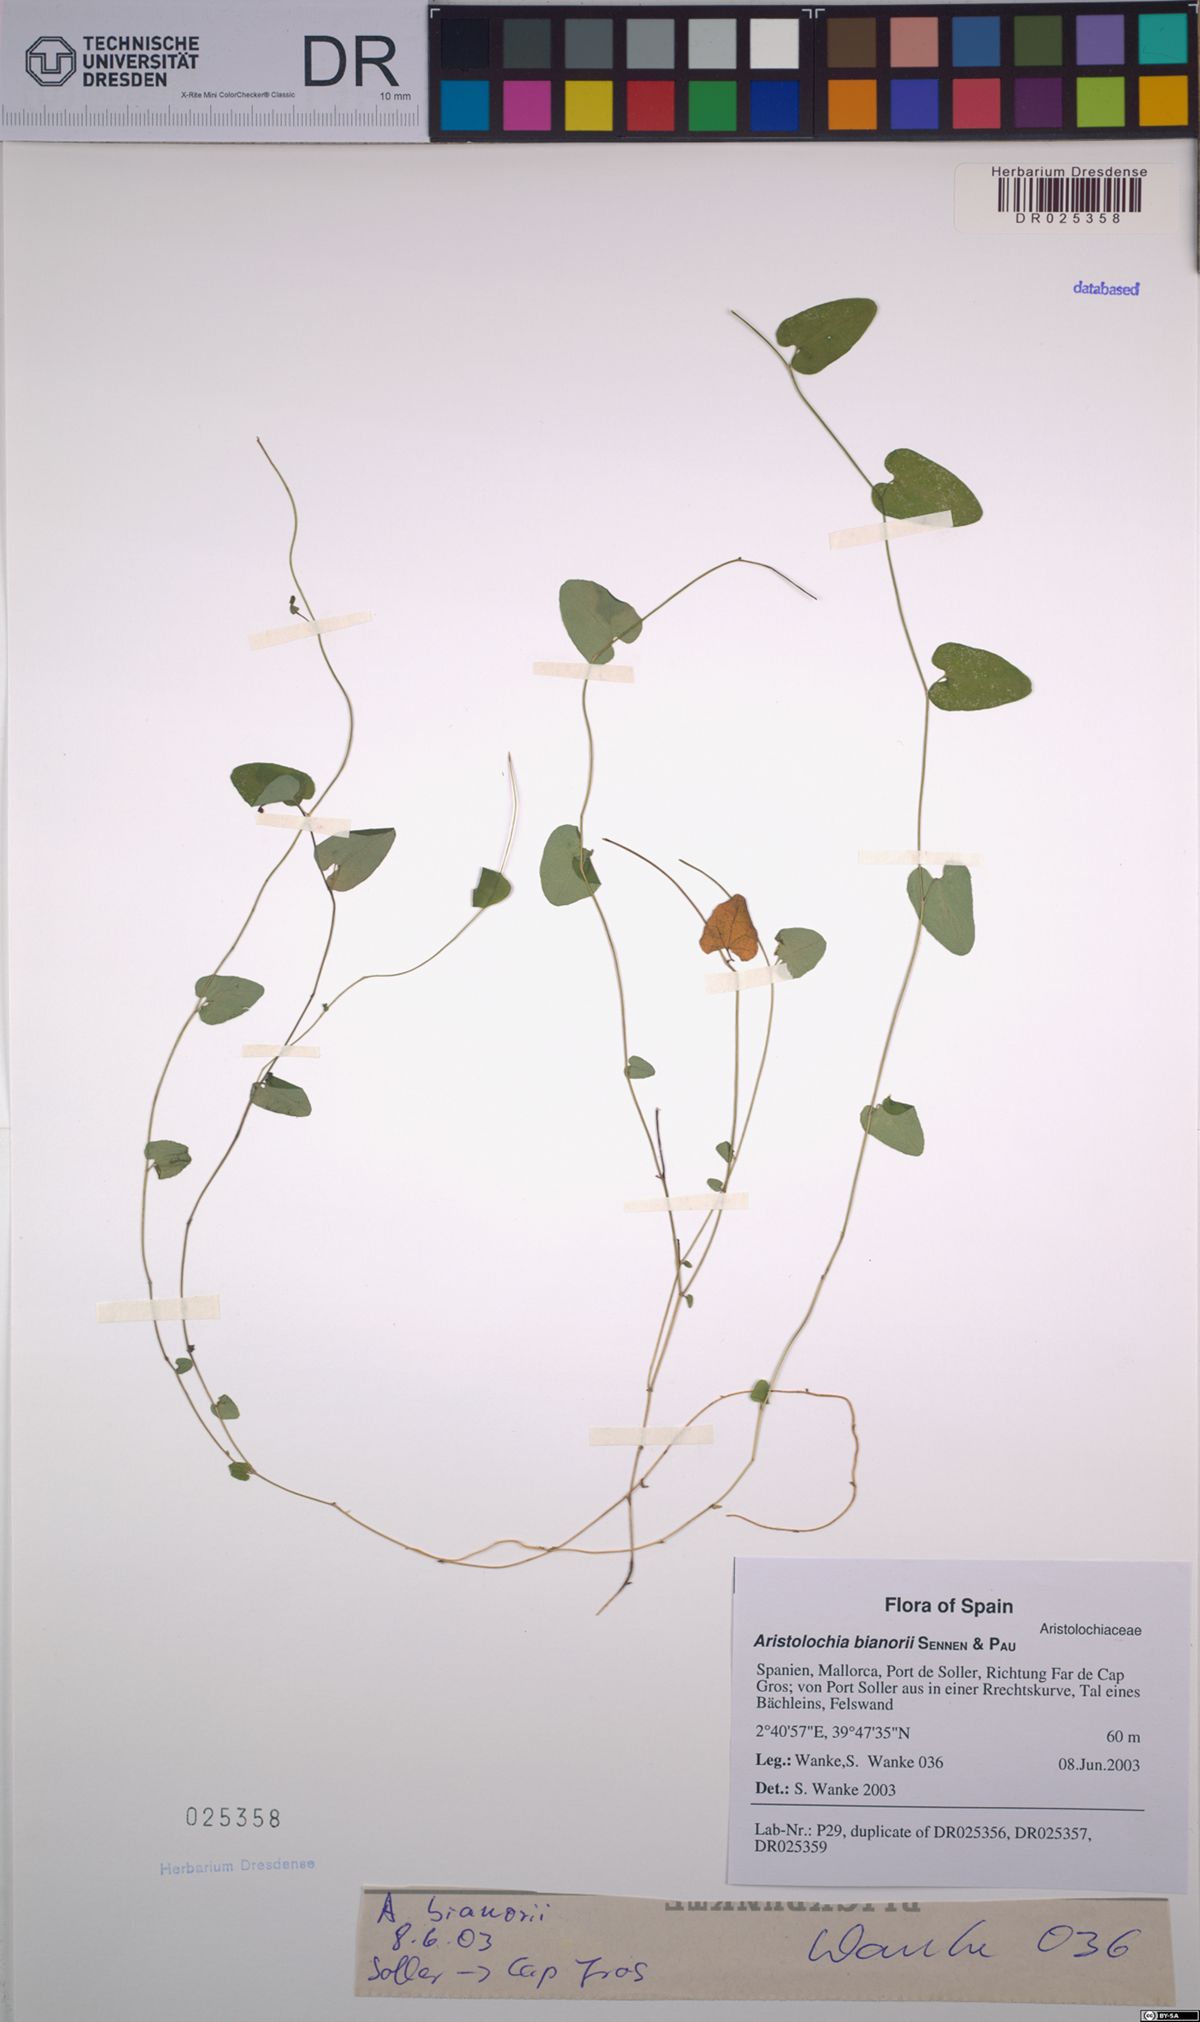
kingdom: Plantae
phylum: Tracheophyta
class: Magnoliopsida
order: Piperales
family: Aristolochiaceae
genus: Aristolochia
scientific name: Aristolochia bianorii
